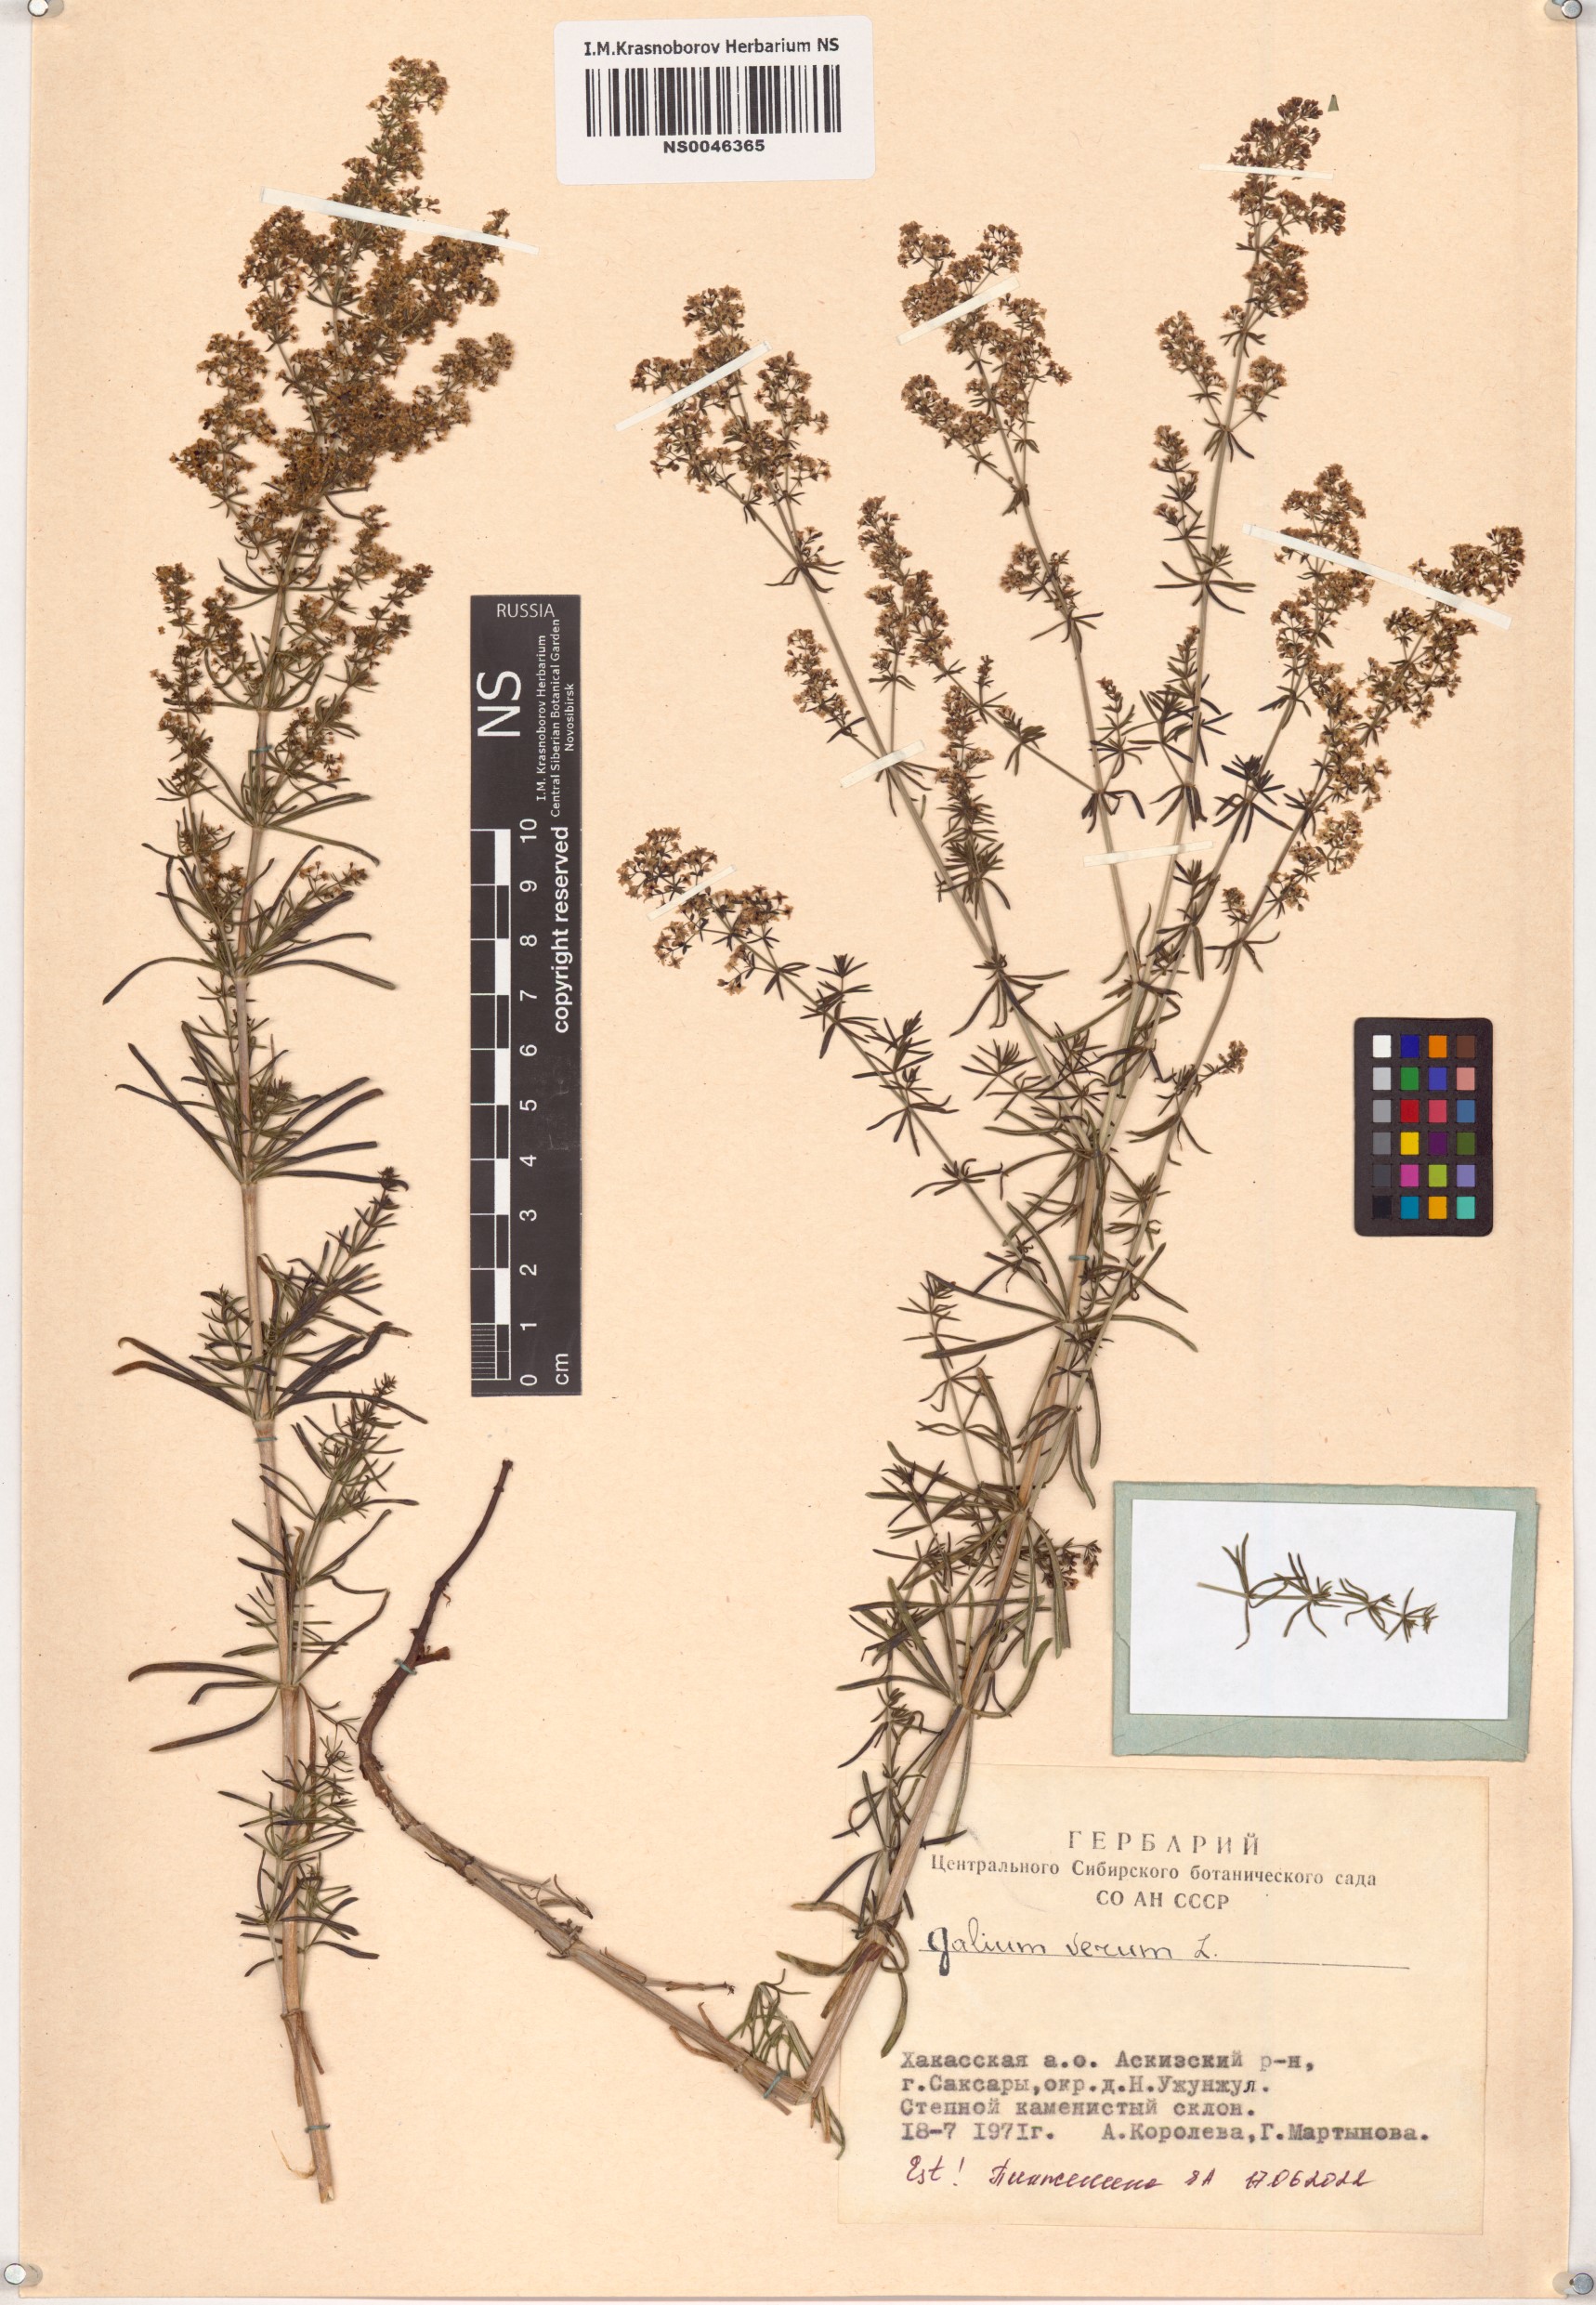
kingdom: Plantae
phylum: Tracheophyta
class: Magnoliopsida
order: Gentianales
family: Rubiaceae
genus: Galium
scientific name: Galium verum
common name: Lady's bedstraw
